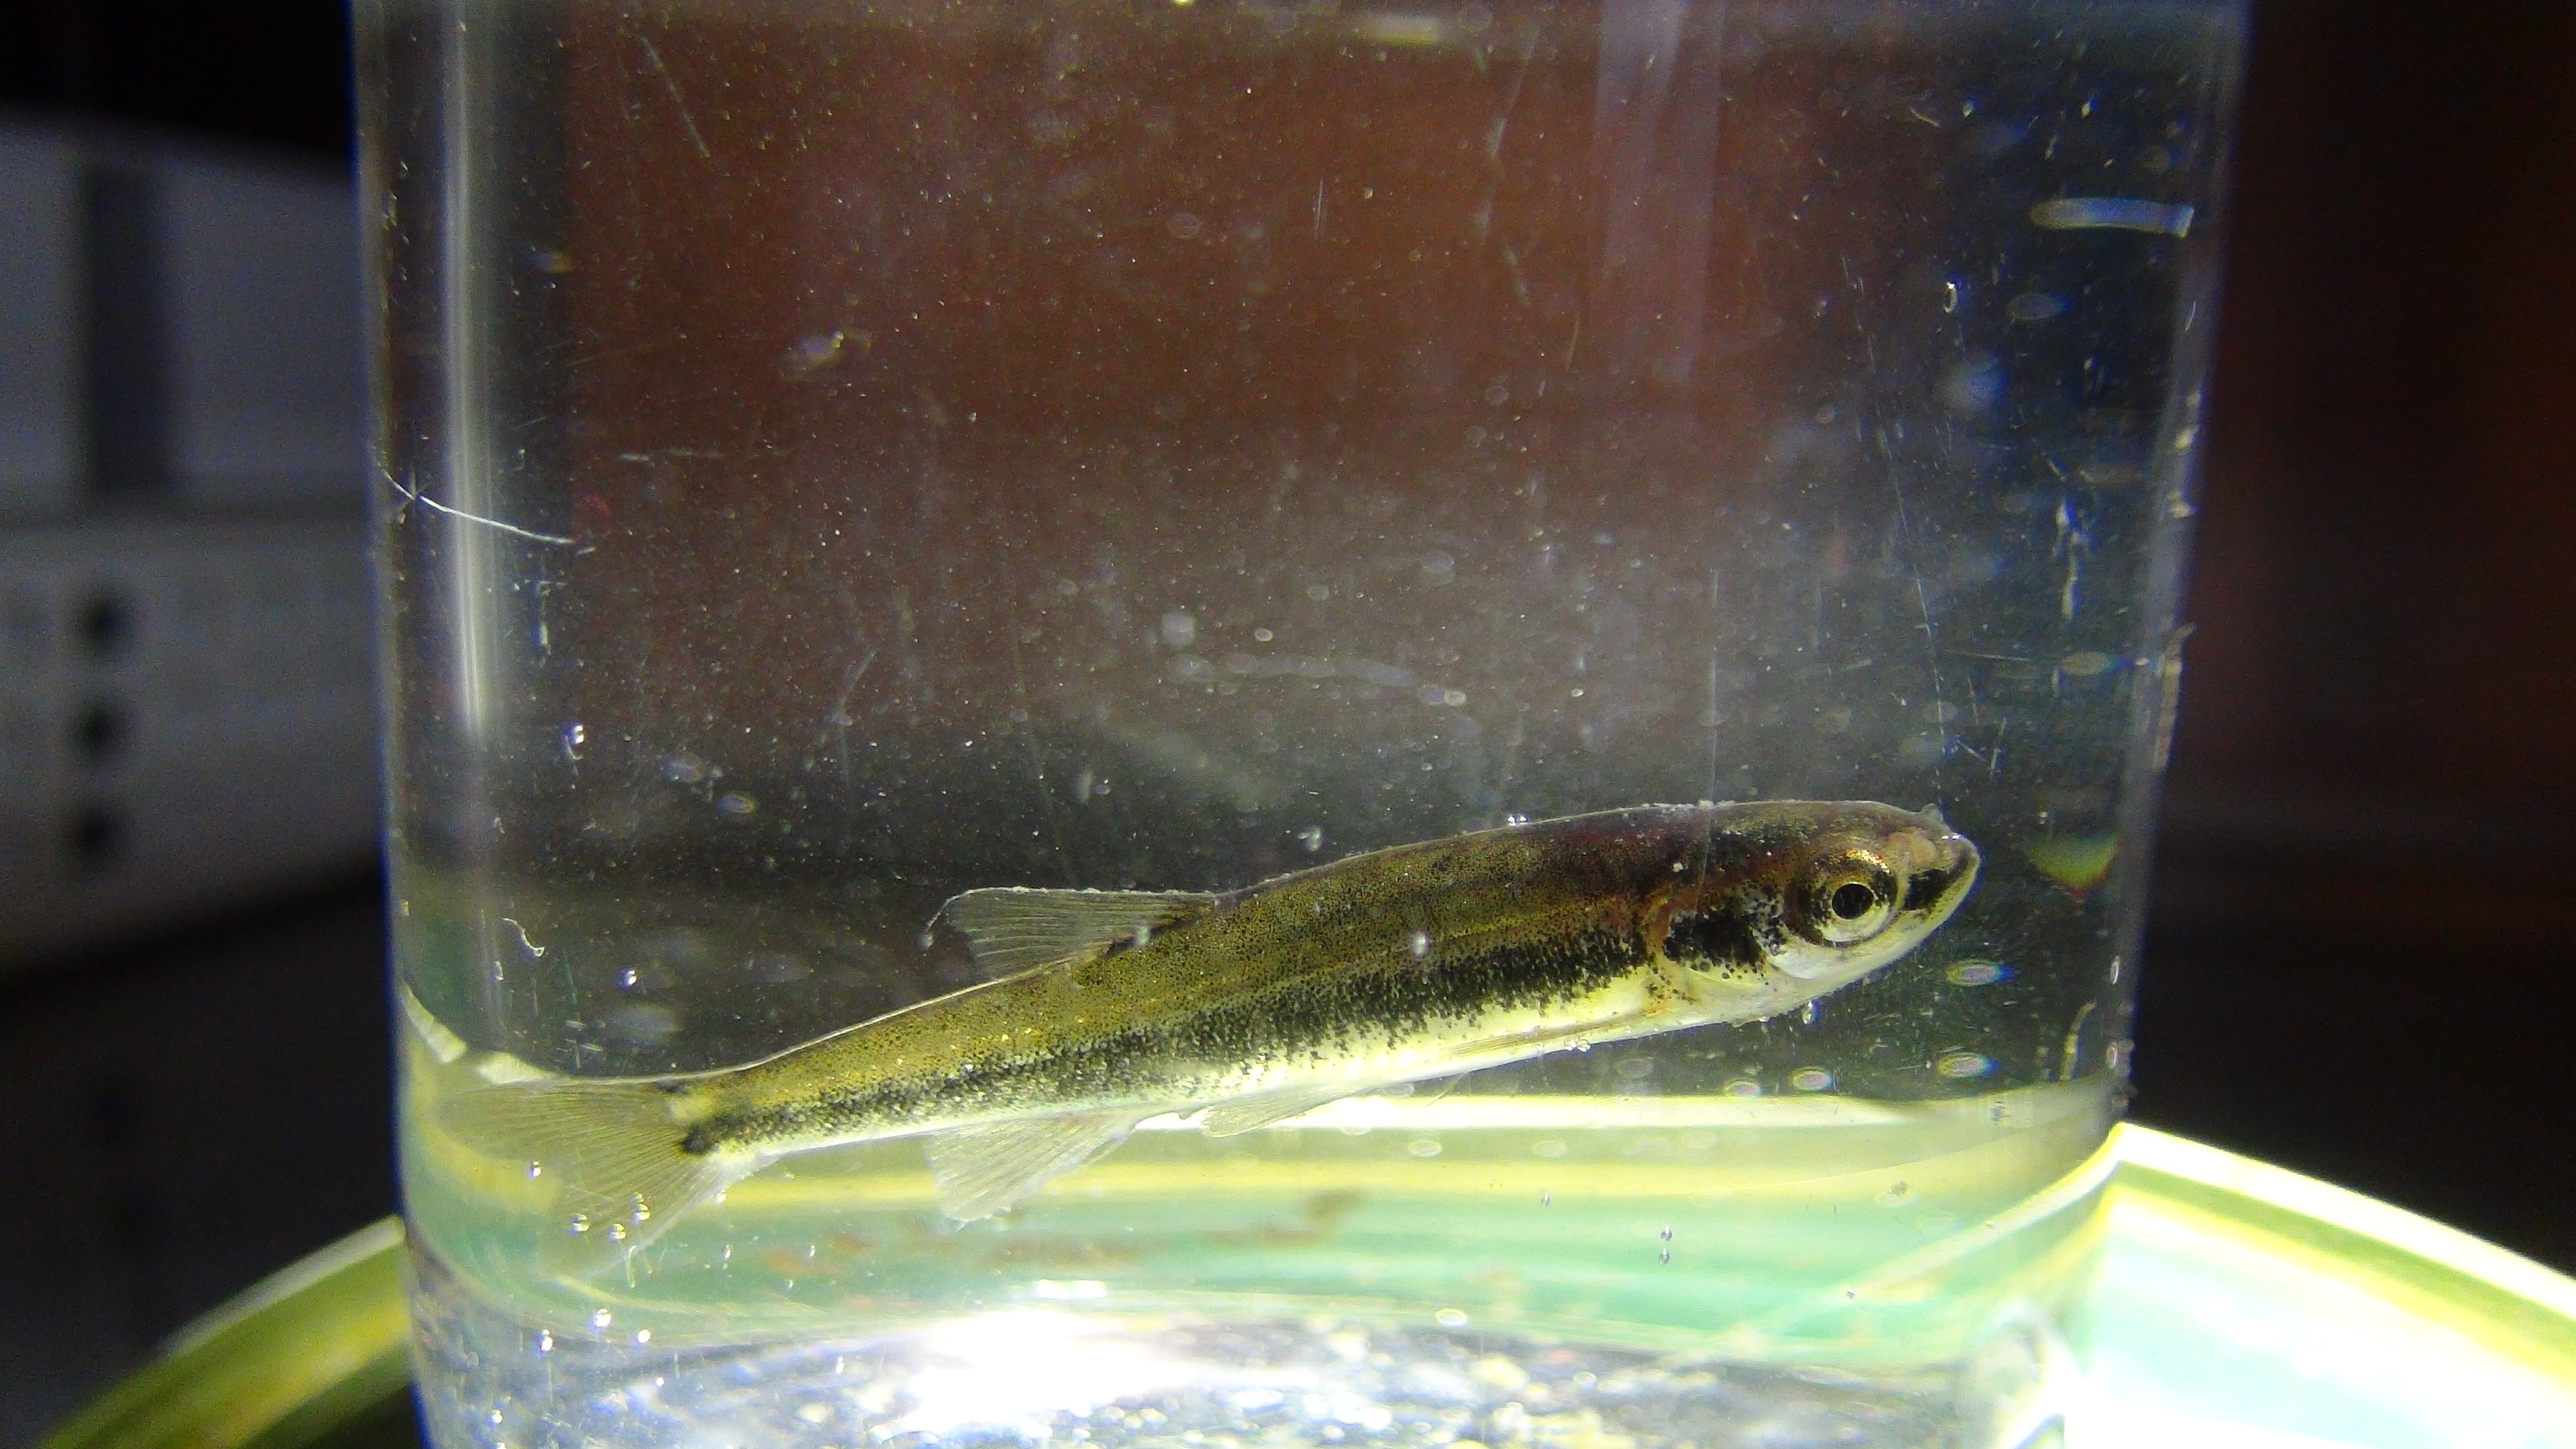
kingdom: Animalia
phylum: Chordata
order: Cypriniformes
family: Cyprinidae
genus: Phoxinus
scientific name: Phoxinus phoxinus
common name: Minnow
